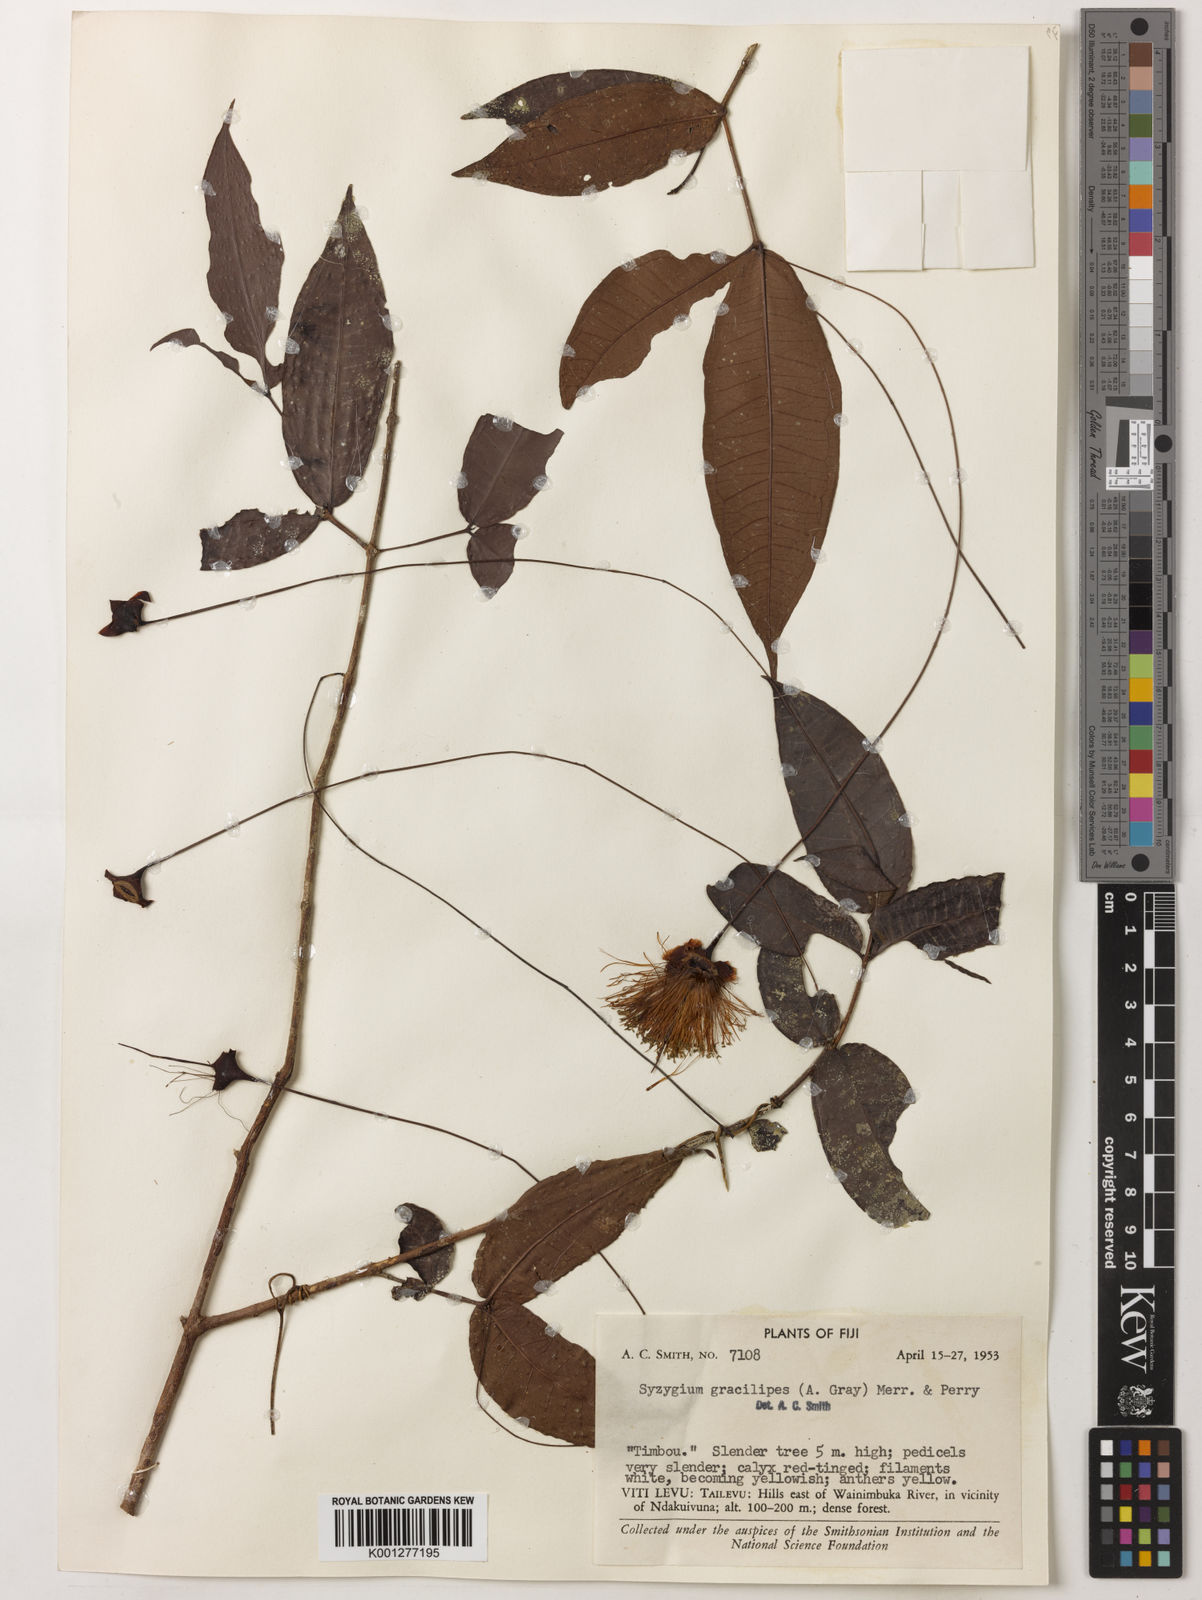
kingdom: Plantae
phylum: Tracheophyta
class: Magnoliopsida
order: Myrtales
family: Myrtaceae
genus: Syzygium
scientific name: Syzygium gracilipes
